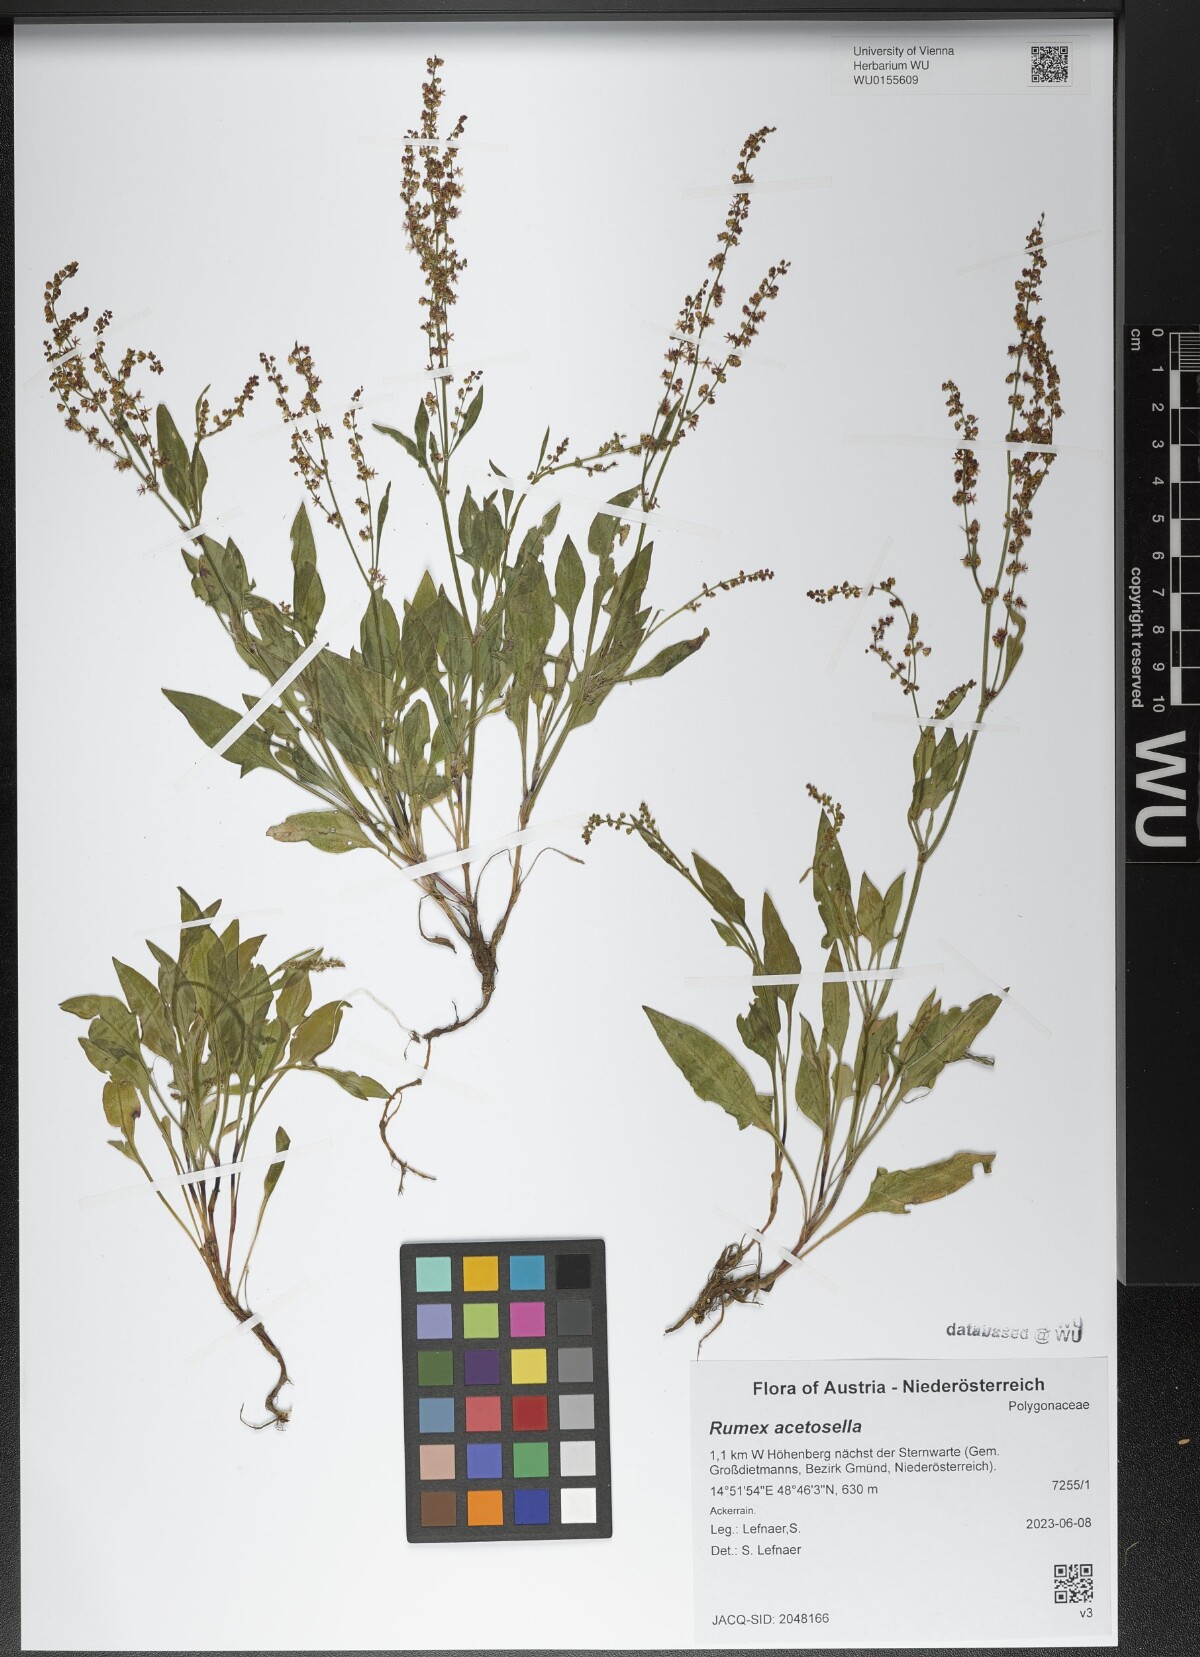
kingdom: Plantae
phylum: Tracheophyta
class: Magnoliopsida
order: Caryophyllales
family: Polygonaceae
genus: Rumex
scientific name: Rumex acetosella
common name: Common sheep sorrel
